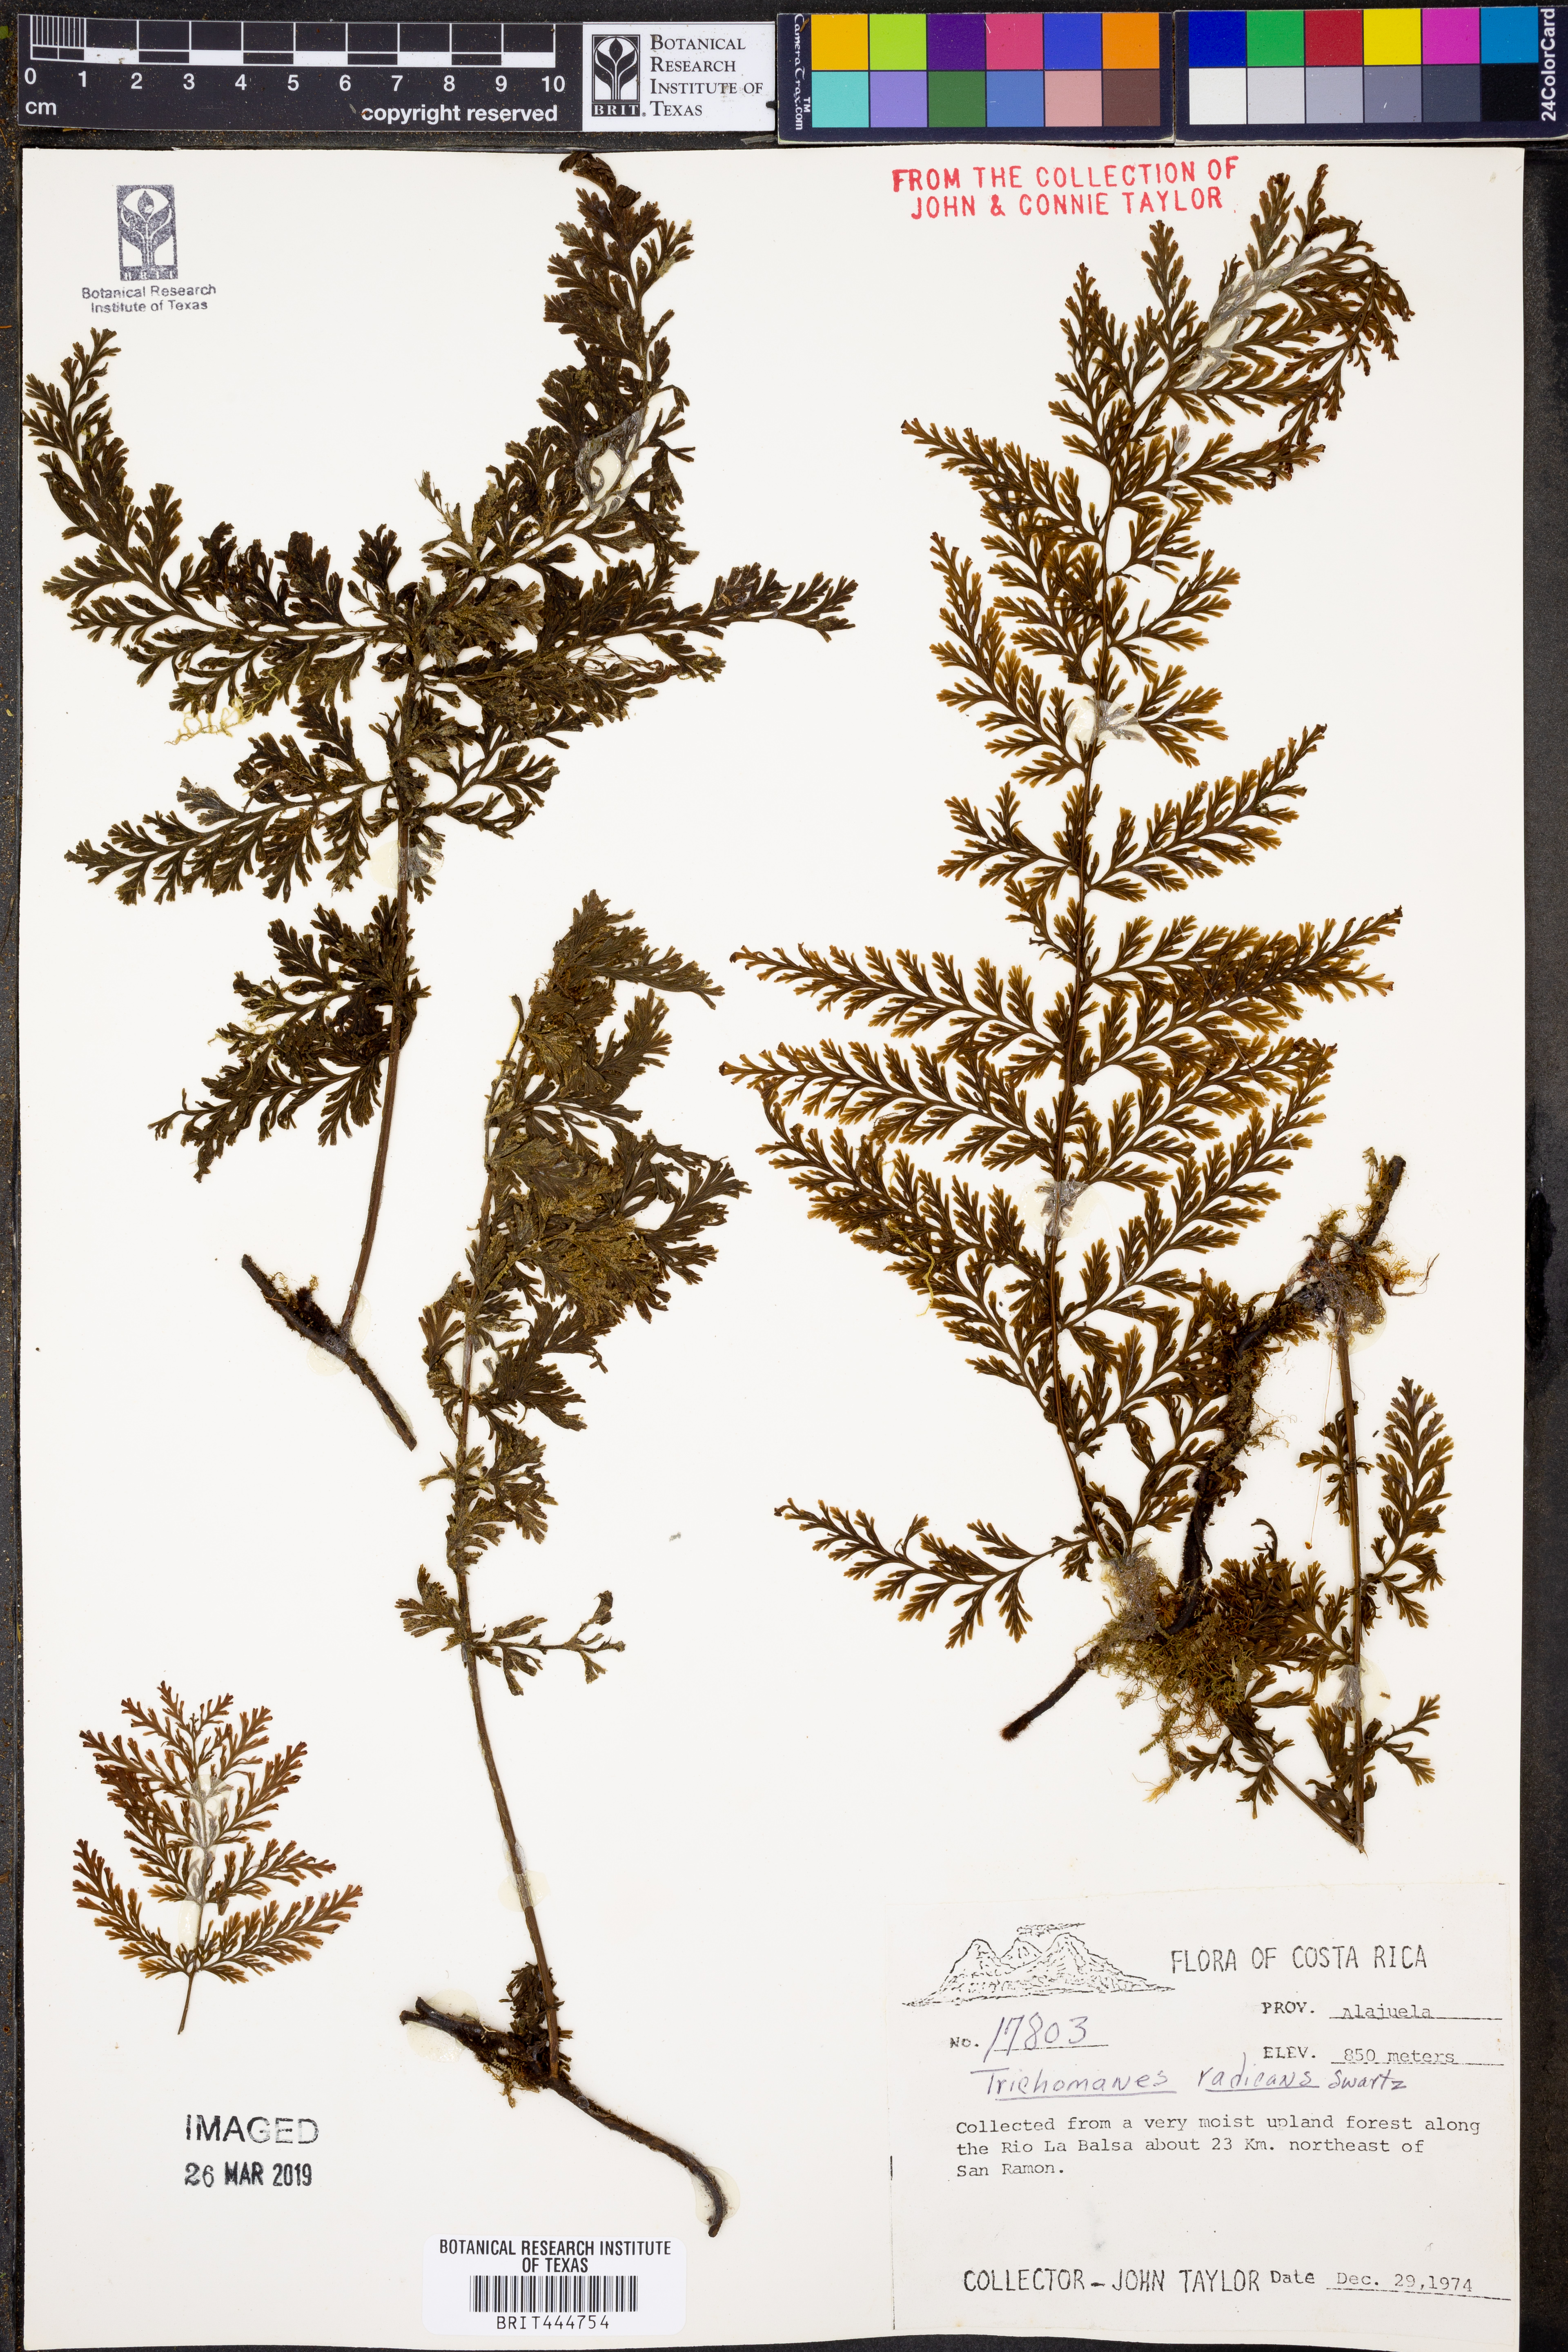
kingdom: Plantae
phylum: Tracheophyta
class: Polypodiopsida
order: Hymenophyllales
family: Hymenophyllaceae
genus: Vandenboschia
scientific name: Vandenboschia radicans
